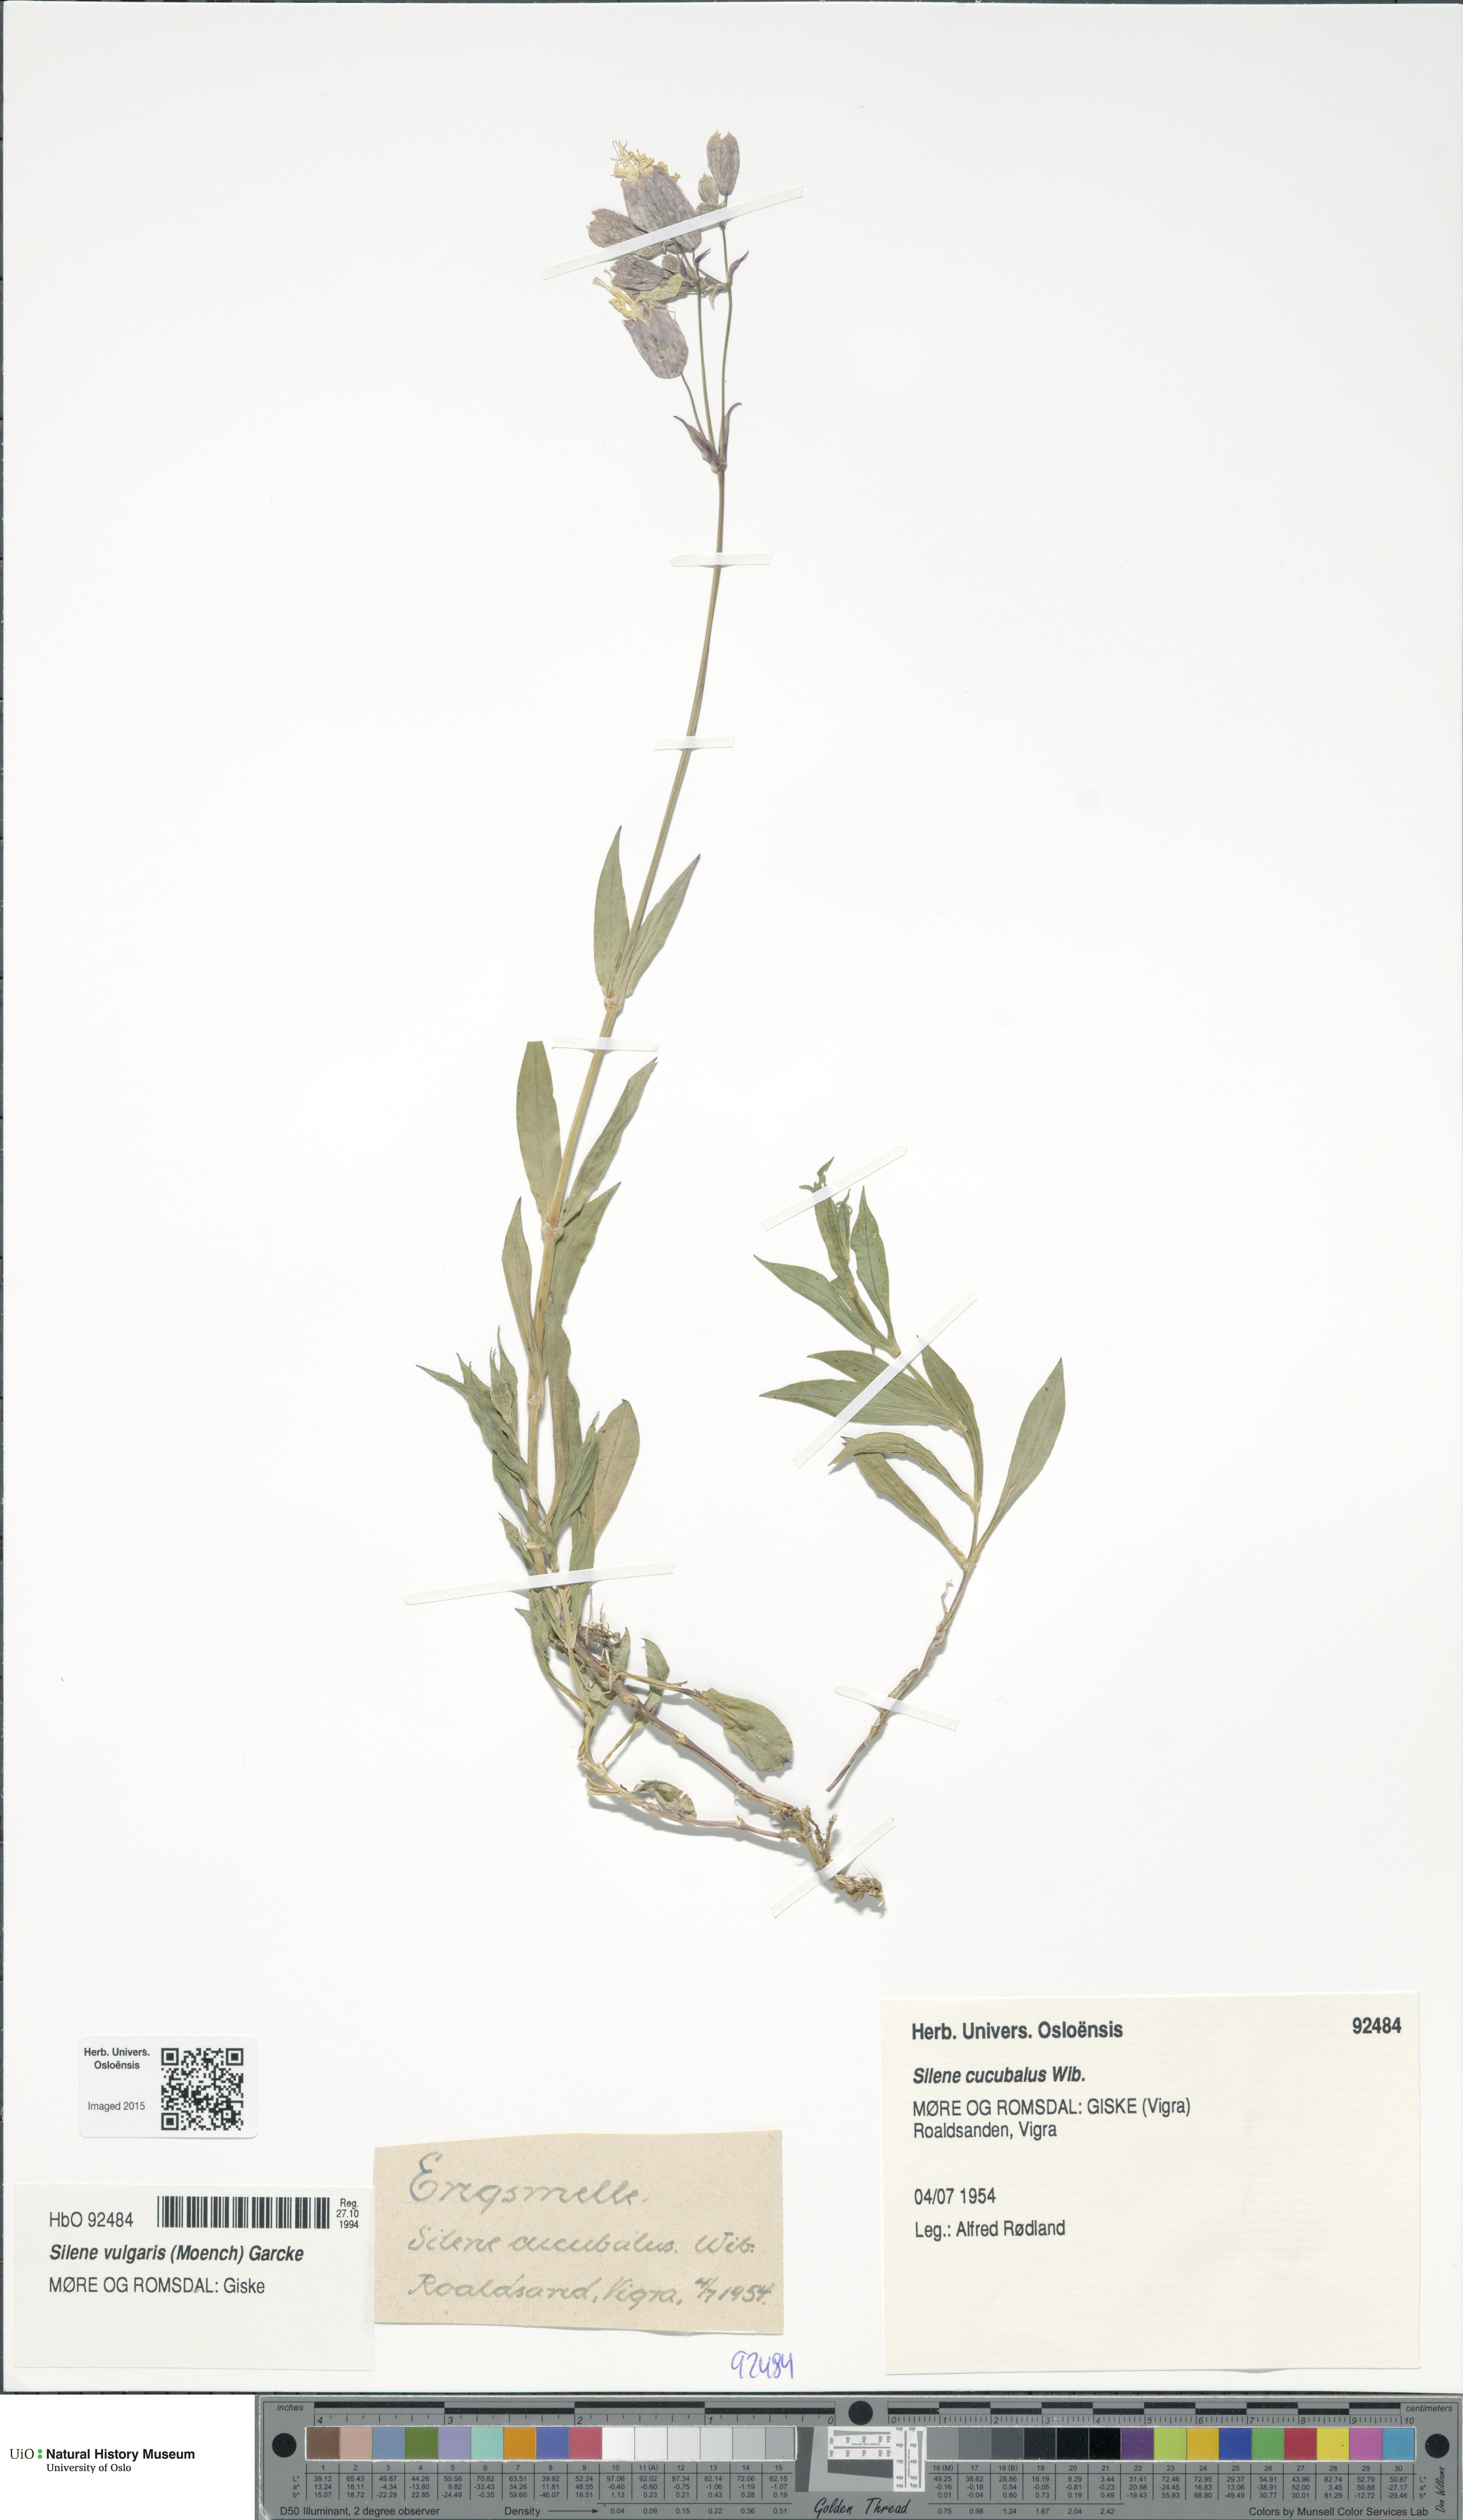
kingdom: Plantae
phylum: Tracheophyta
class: Magnoliopsida
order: Caryophyllales
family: Caryophyllaceae
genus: Silene
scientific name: Silene vulgaris
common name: Bladder campion
